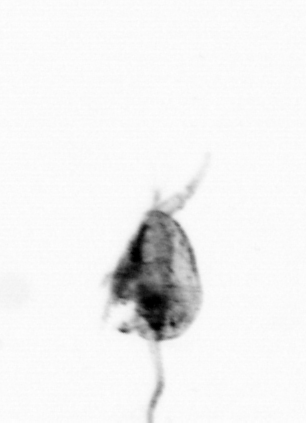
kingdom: Animalia
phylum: Arthropoda
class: Copepoda
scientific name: Copepoda
